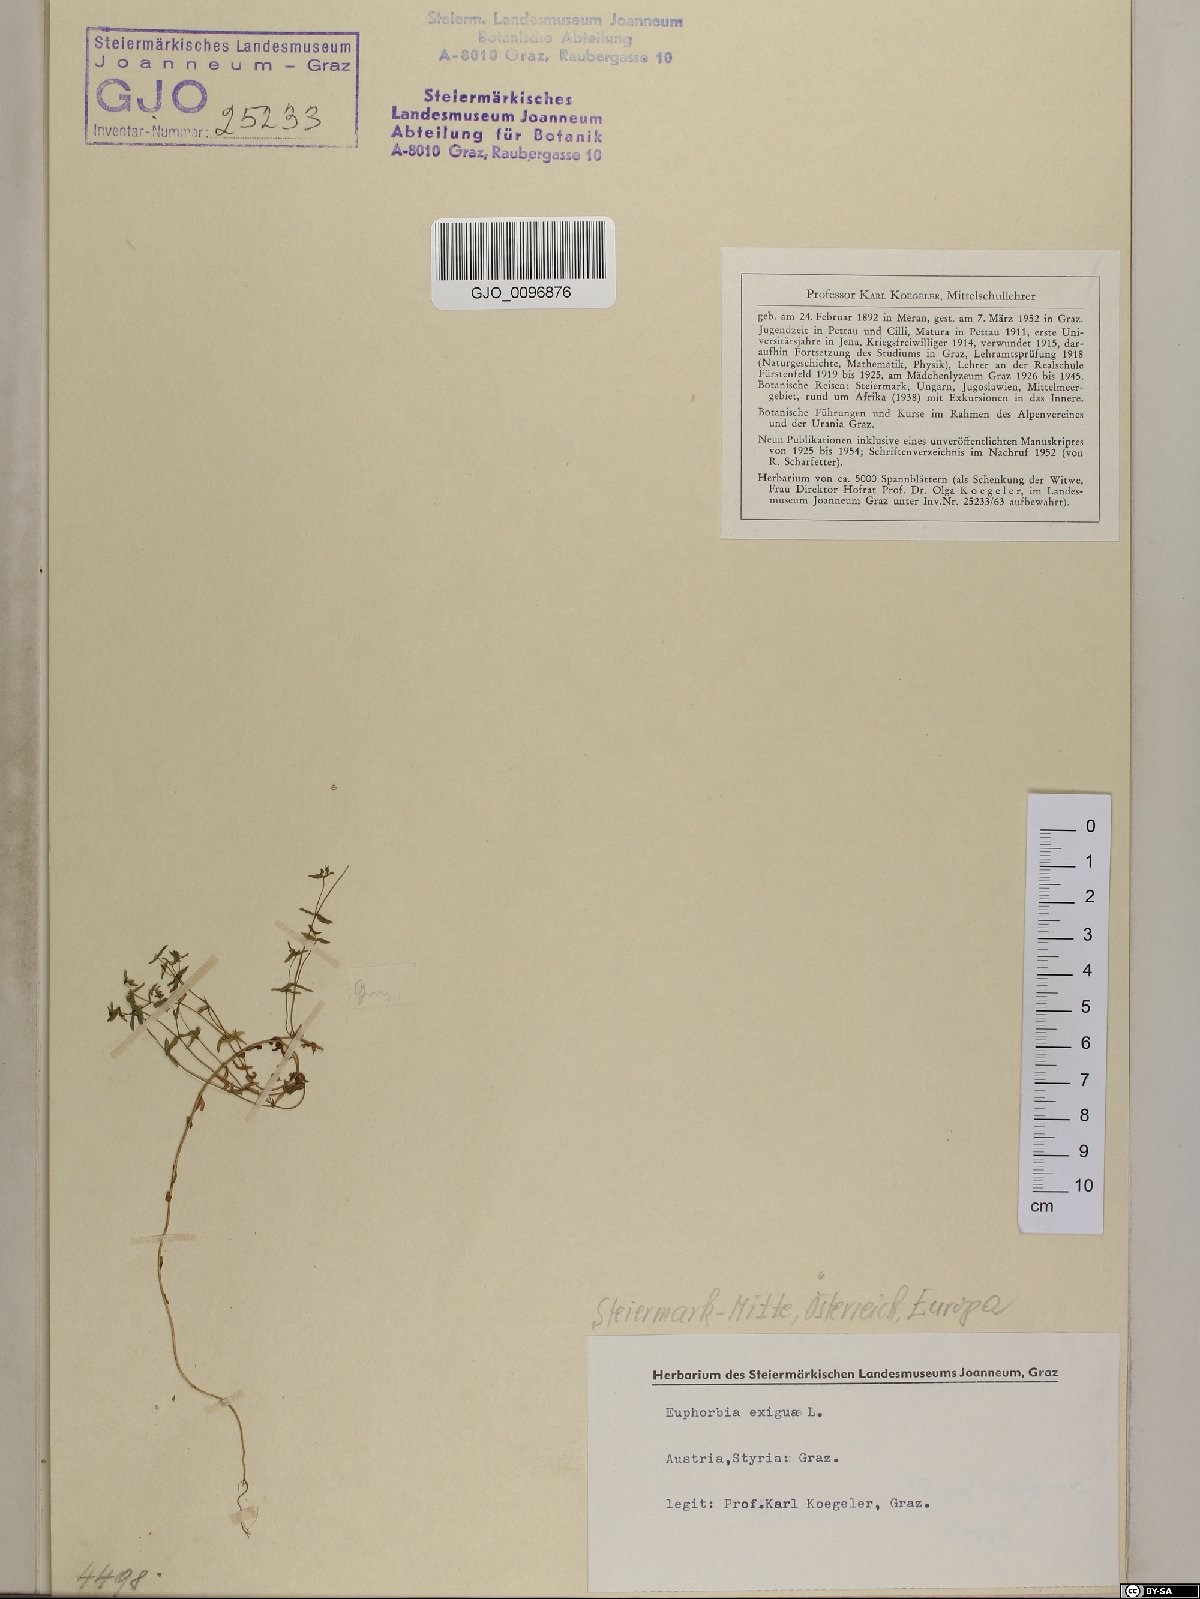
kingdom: Plantae
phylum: Tracheophyta
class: Magnoliopsida
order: Malpighiales
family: Euphorbiaceae
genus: Euphorbia
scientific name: Euphorbia exigua
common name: Dwarf spurge
